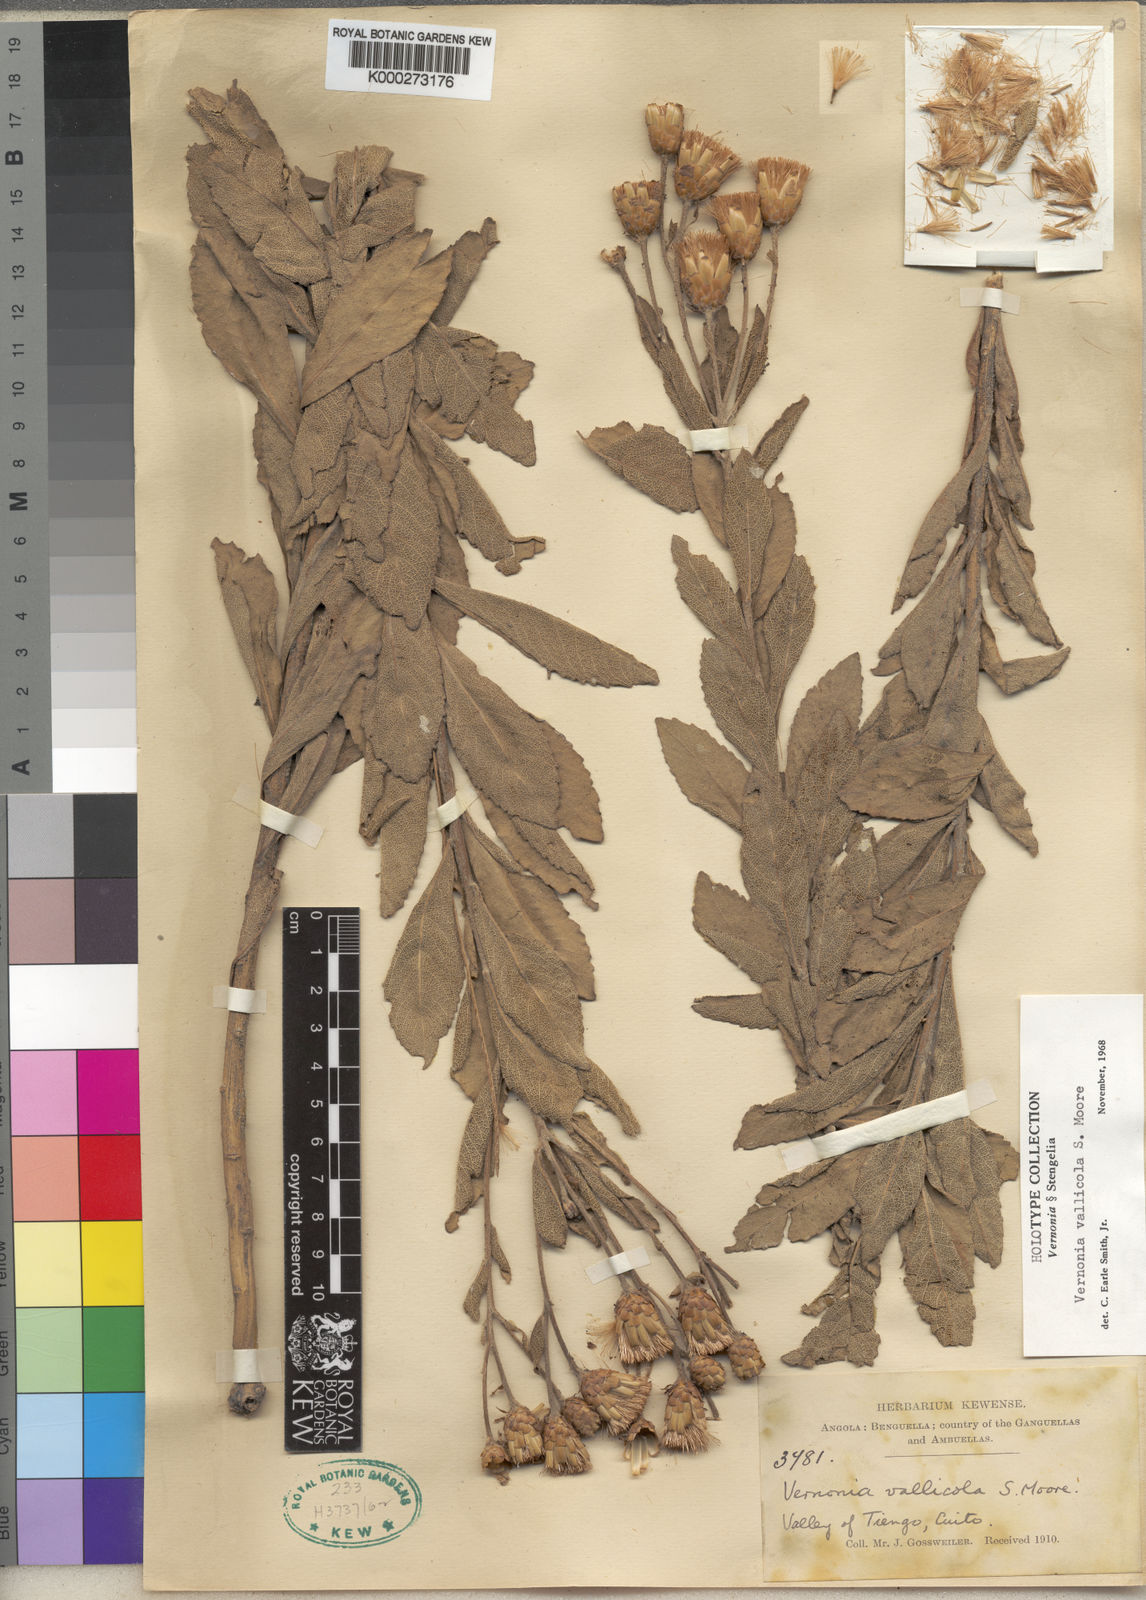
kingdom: Plantae
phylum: Tracheophyta
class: Magnoliopsida
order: Asterales
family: Asteraceae
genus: Vernonia
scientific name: Vernonia vallicola
